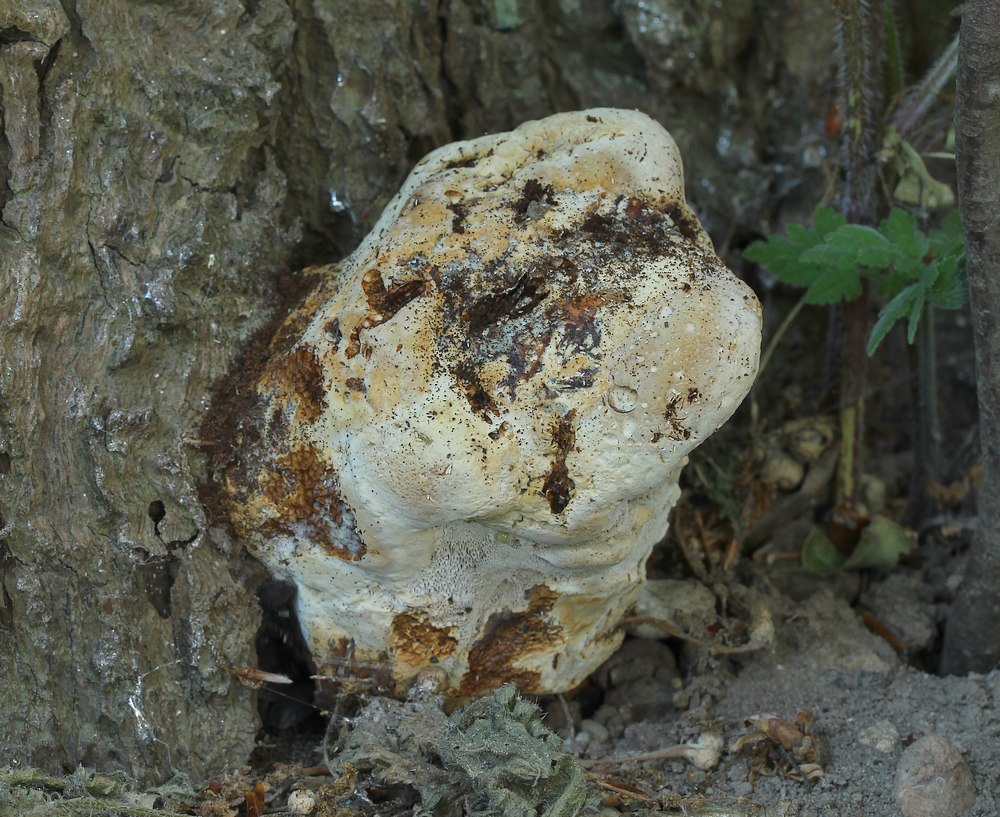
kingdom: Fungi
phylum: Basidiomycota
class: Agaricomycetes
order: Hymenochaetales
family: Hymenochaetaceae
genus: Pseudoinonotus
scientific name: Pseudoinonotus dryadeus
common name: ege-spejlporesvamp
